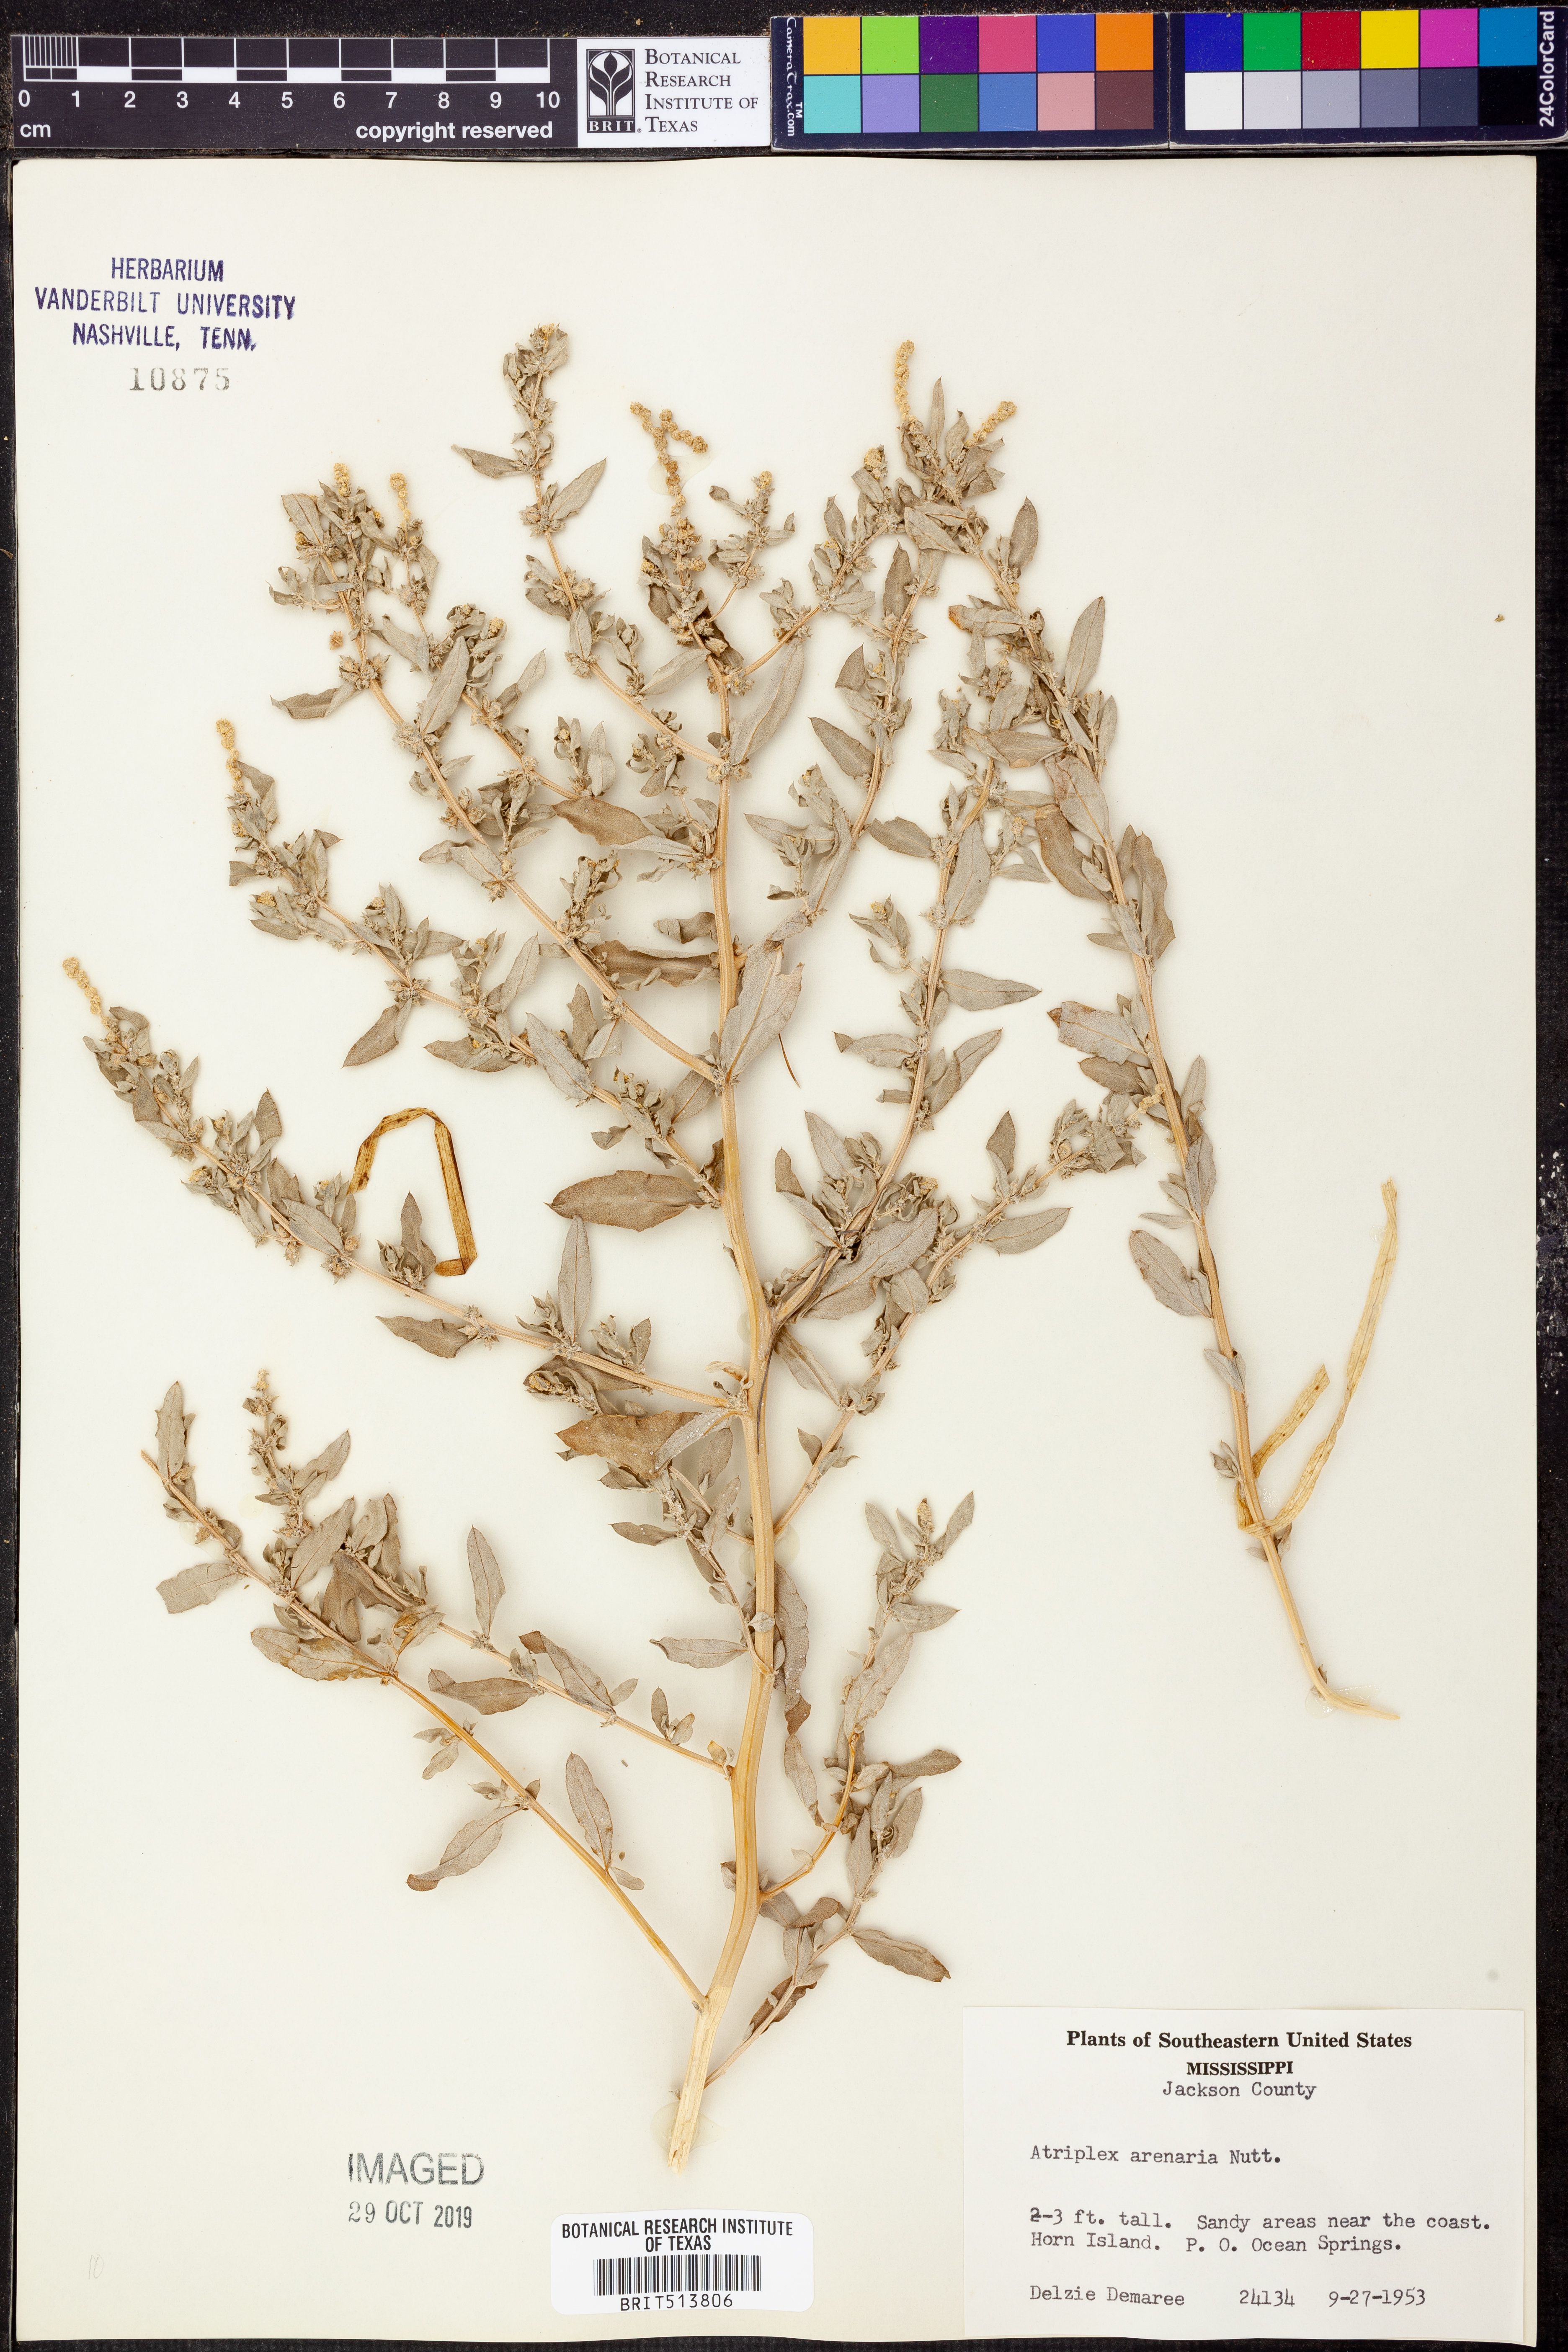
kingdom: Plantae
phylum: Tracheophyta
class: Magnoliopsida
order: Caryophyllales
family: Amaranthaceae
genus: Atriplex
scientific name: Atriplex mucronata
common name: Quelite
